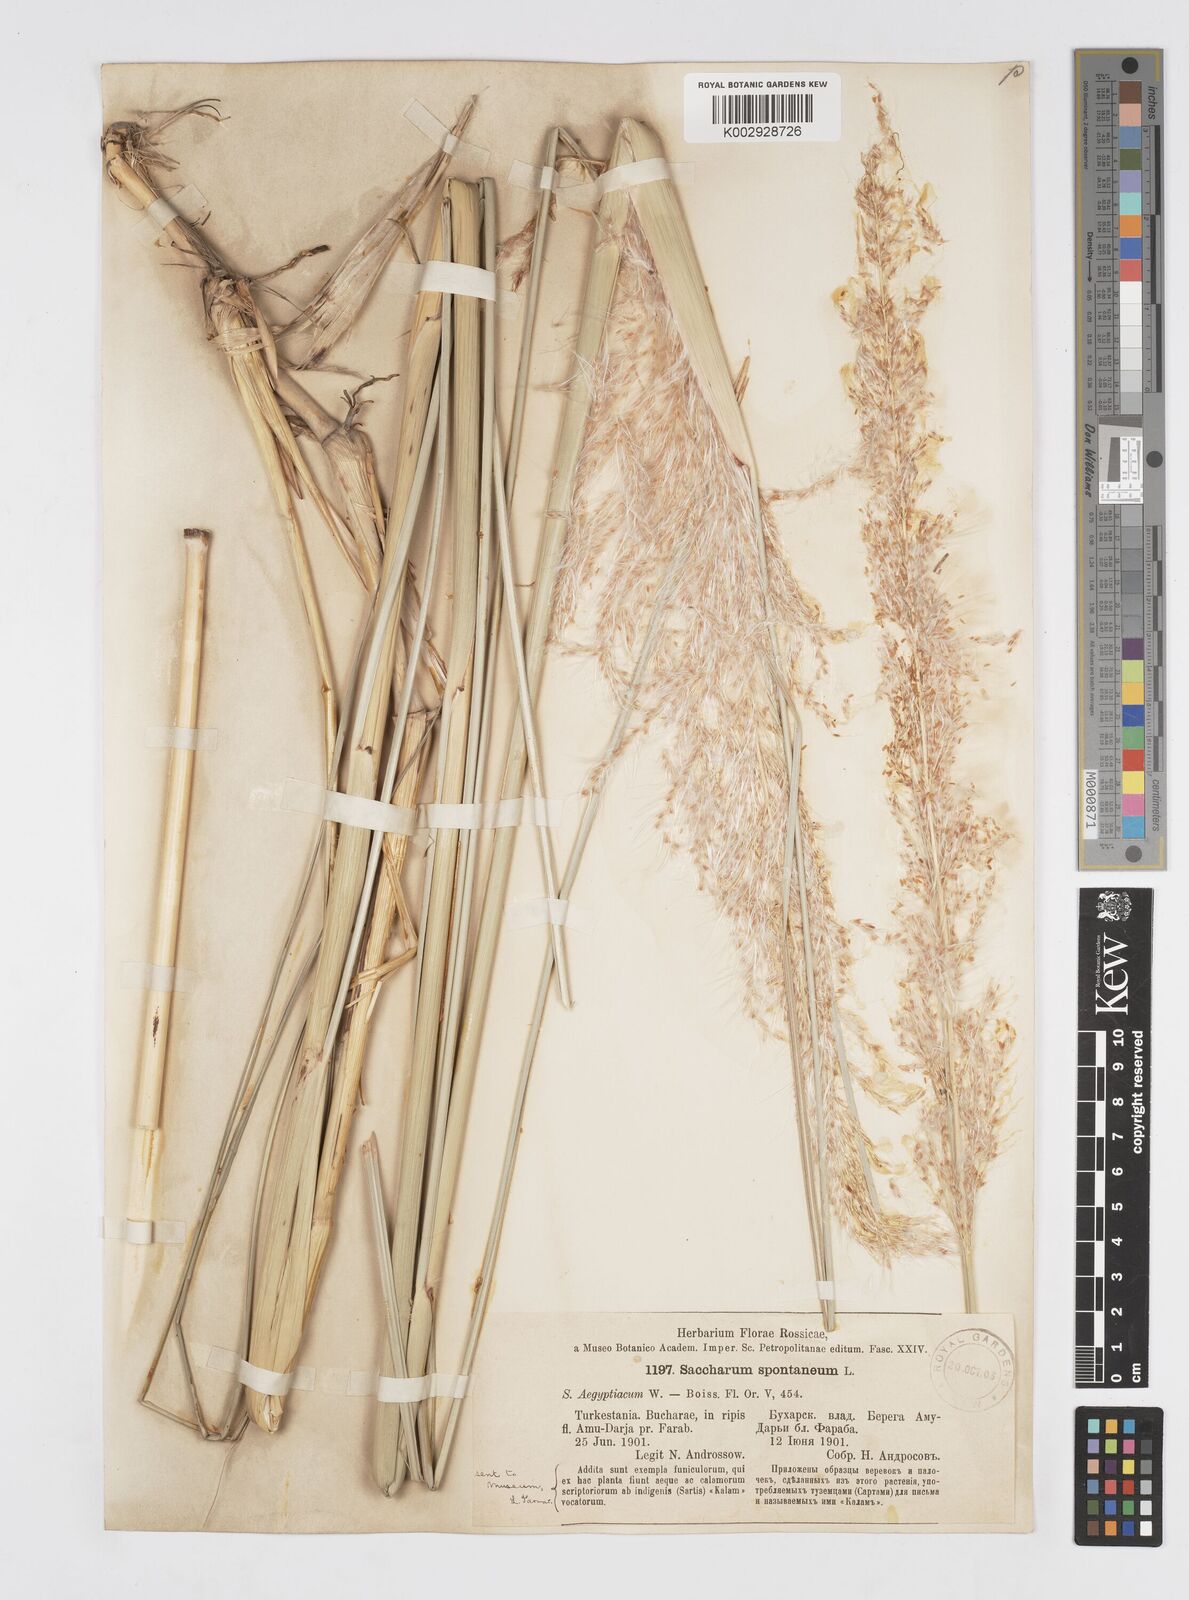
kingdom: Plantae
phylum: Tracheophyta
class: Liliopsida
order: Poales
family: Poaceae
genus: Saccharum
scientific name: Saccharum spontaneum
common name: Wild sugarcane
